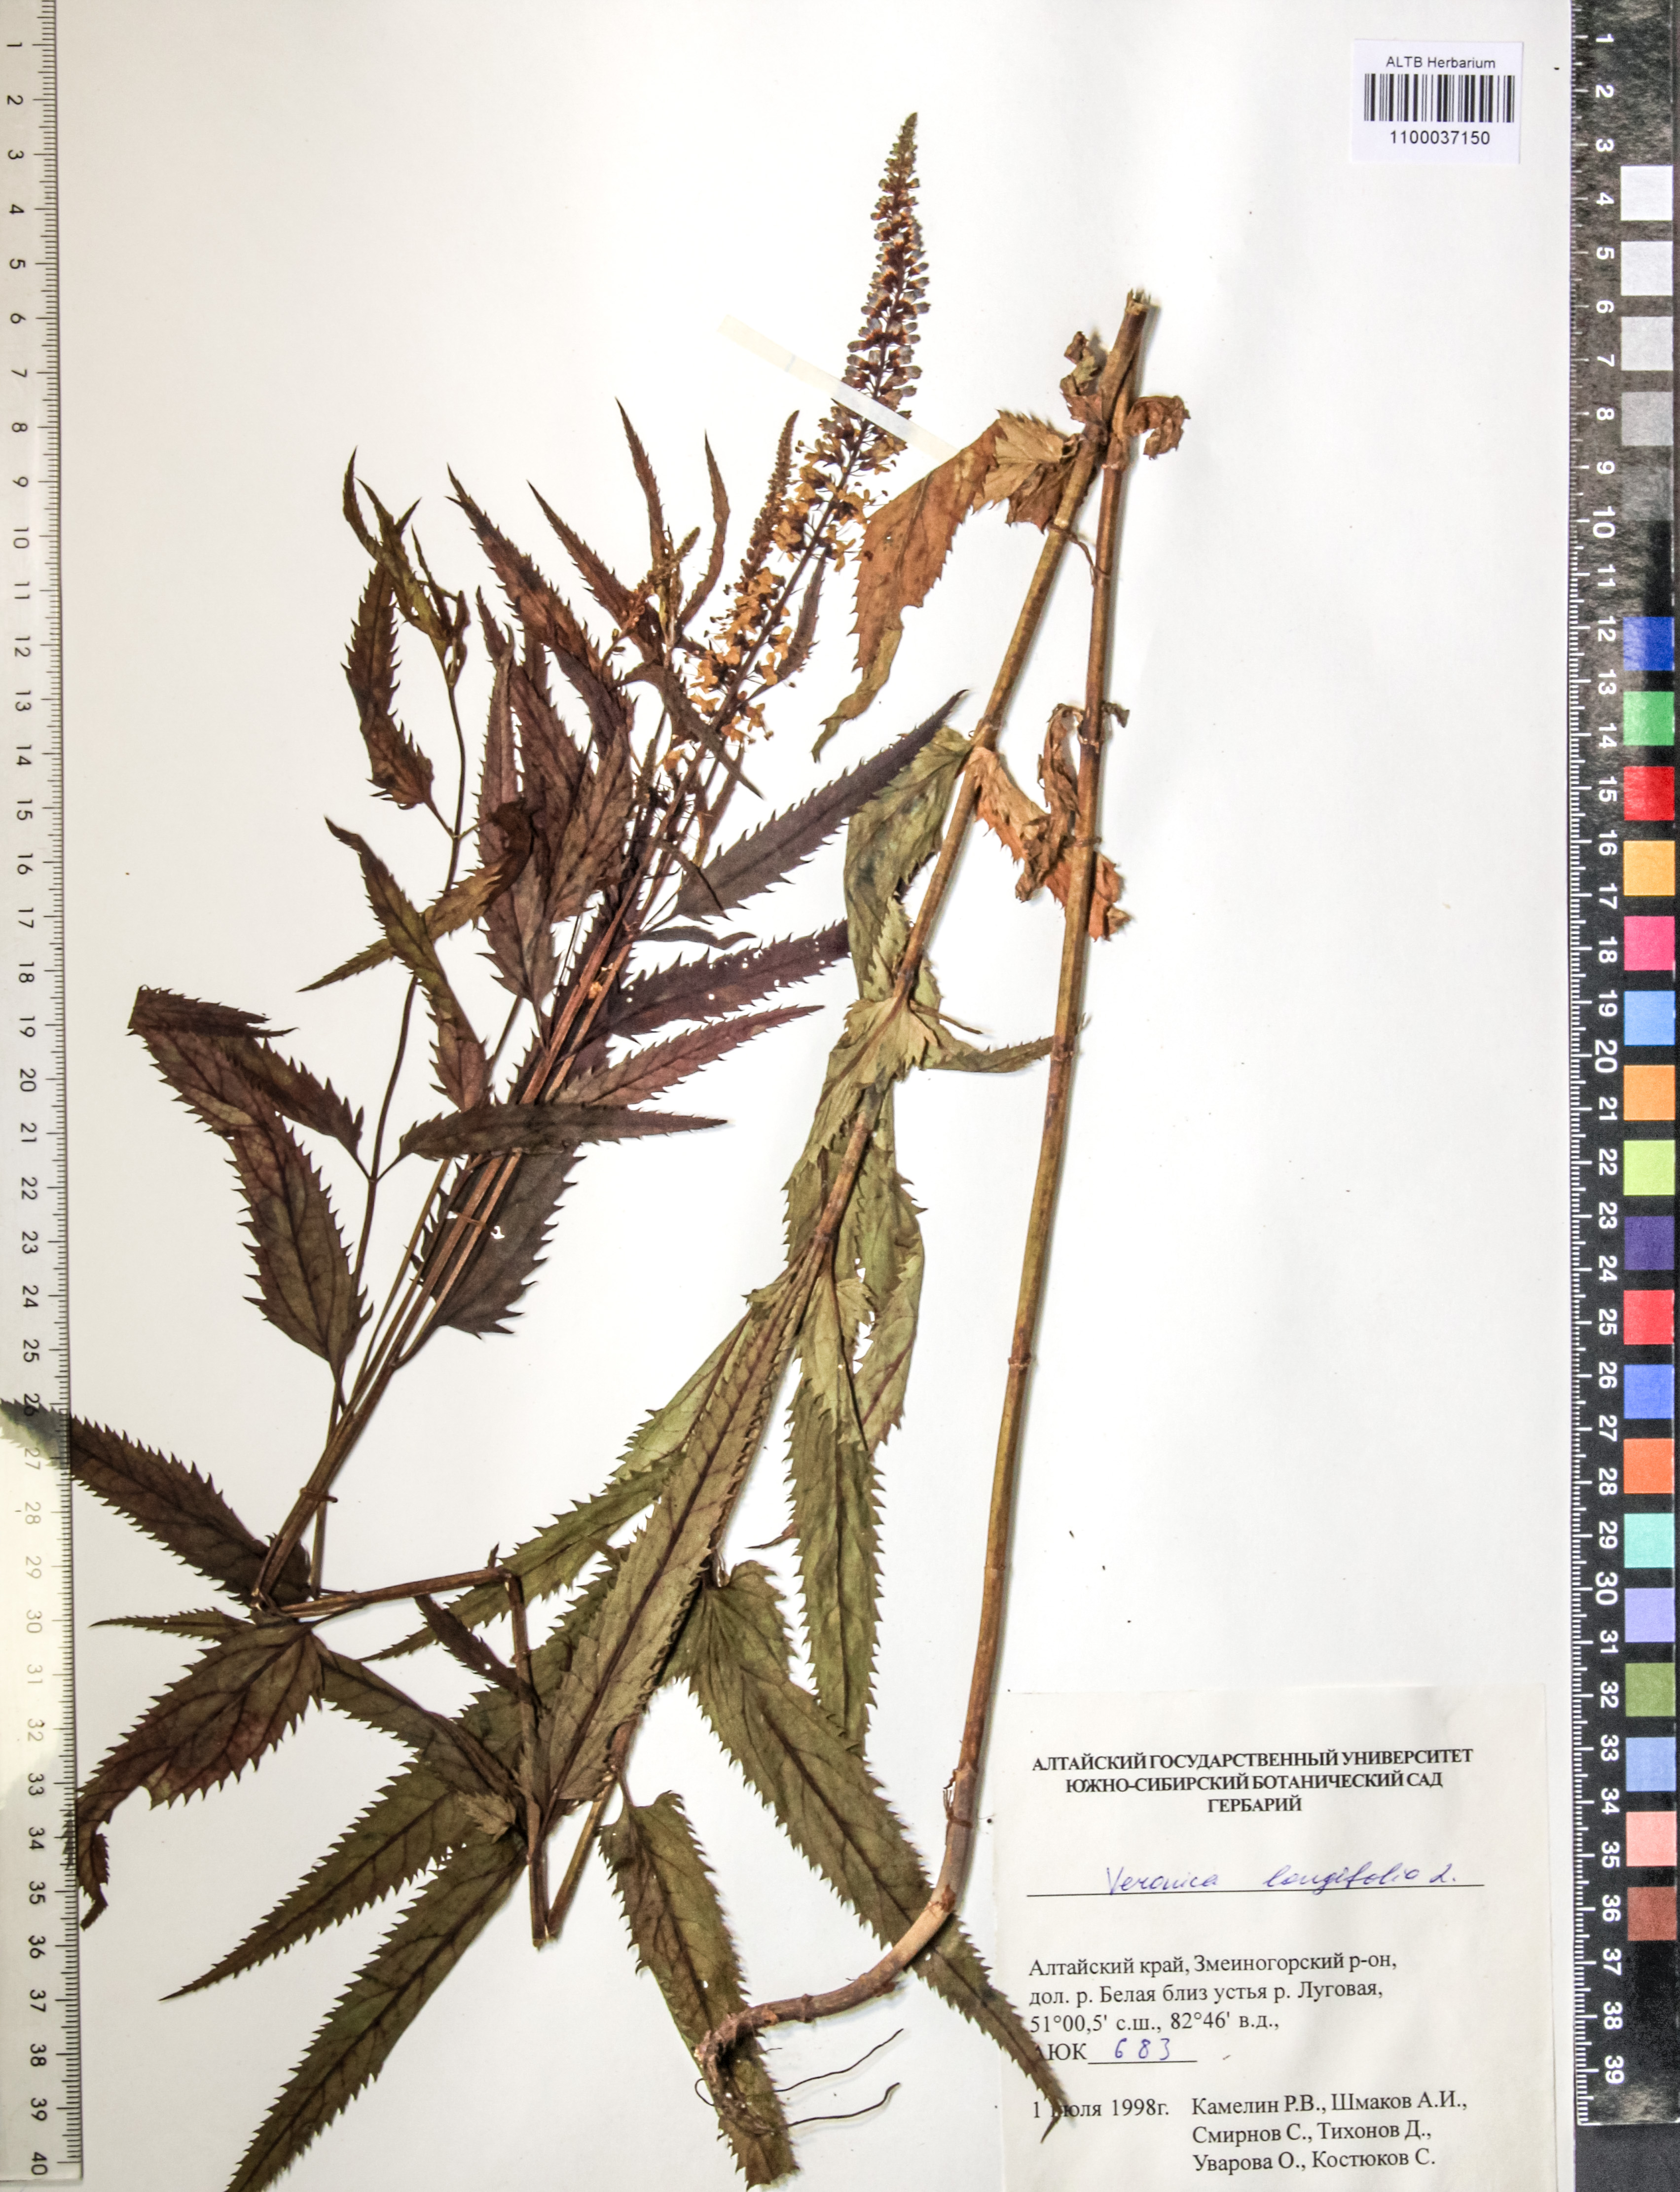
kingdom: Plantae
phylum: Tracheophyta
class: Magnoliopsida
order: Lamiales
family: Plantaginaceae
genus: Veronica
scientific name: Veronica longifolia
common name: Garden speedwell
